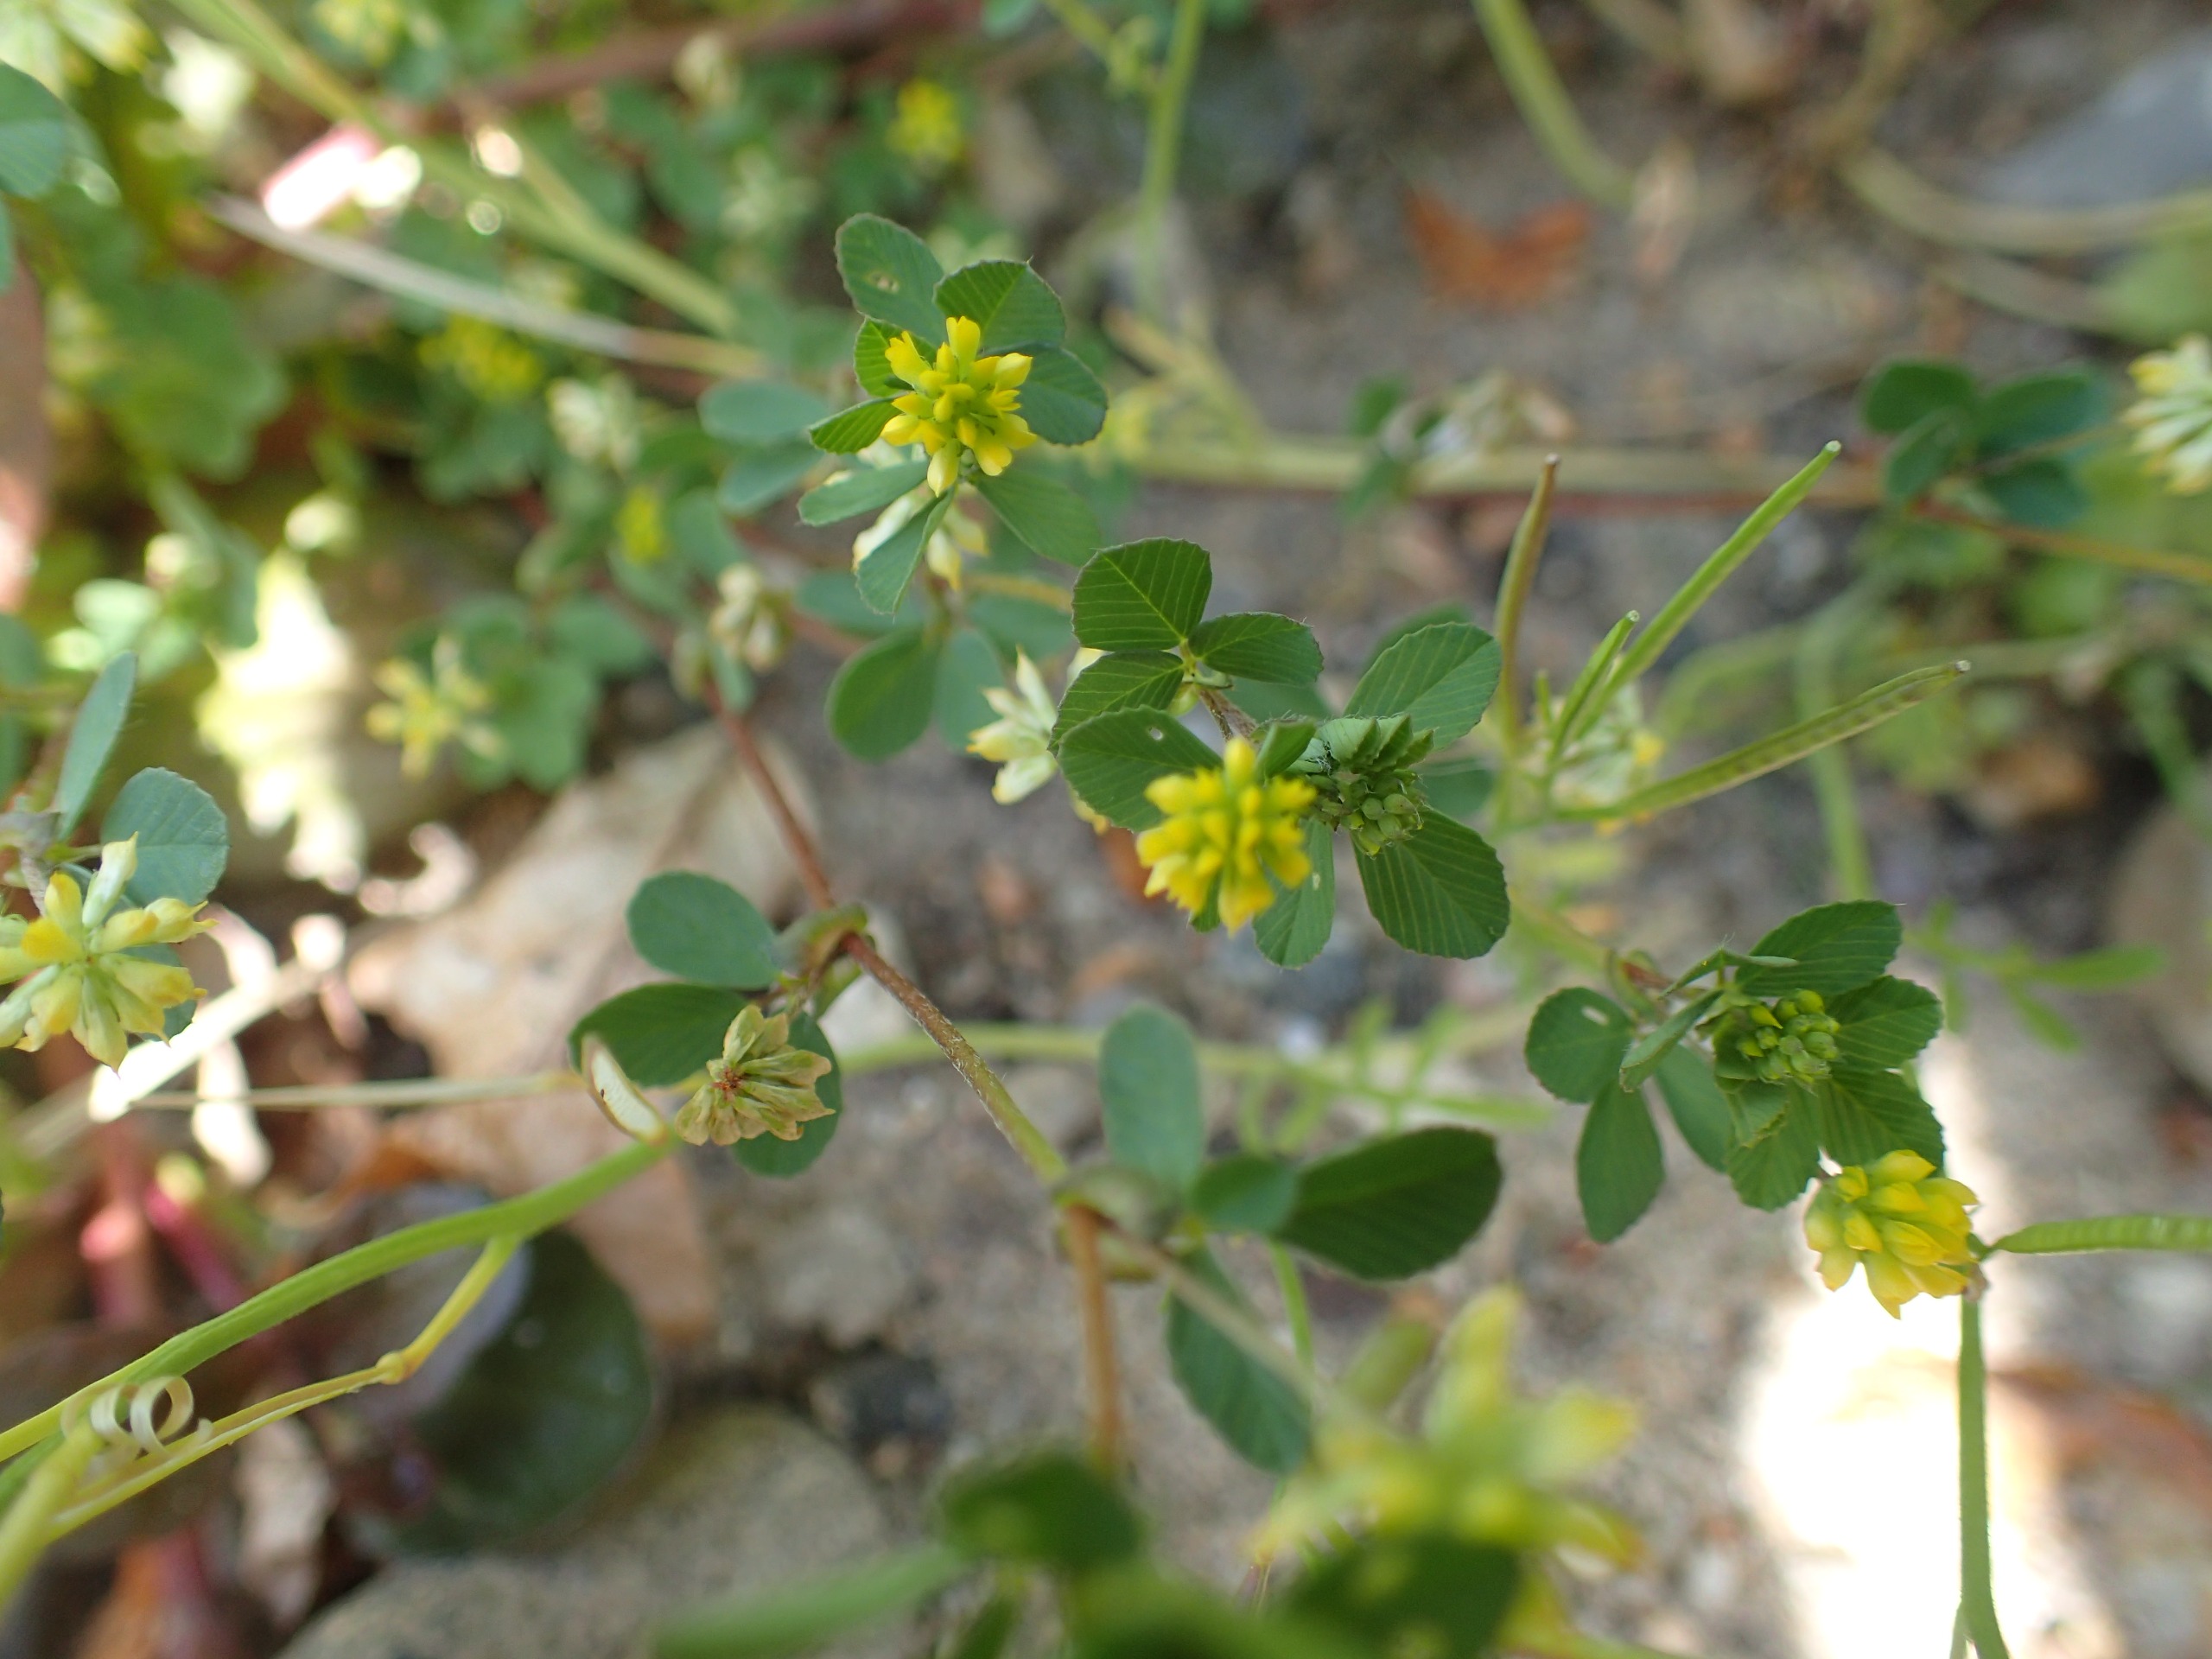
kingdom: Plantae
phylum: Tracheophyta
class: Magnoliopsida
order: Fabales
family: Fabaceae
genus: Trifolium
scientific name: Trifolium dubium
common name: Fin kløver
